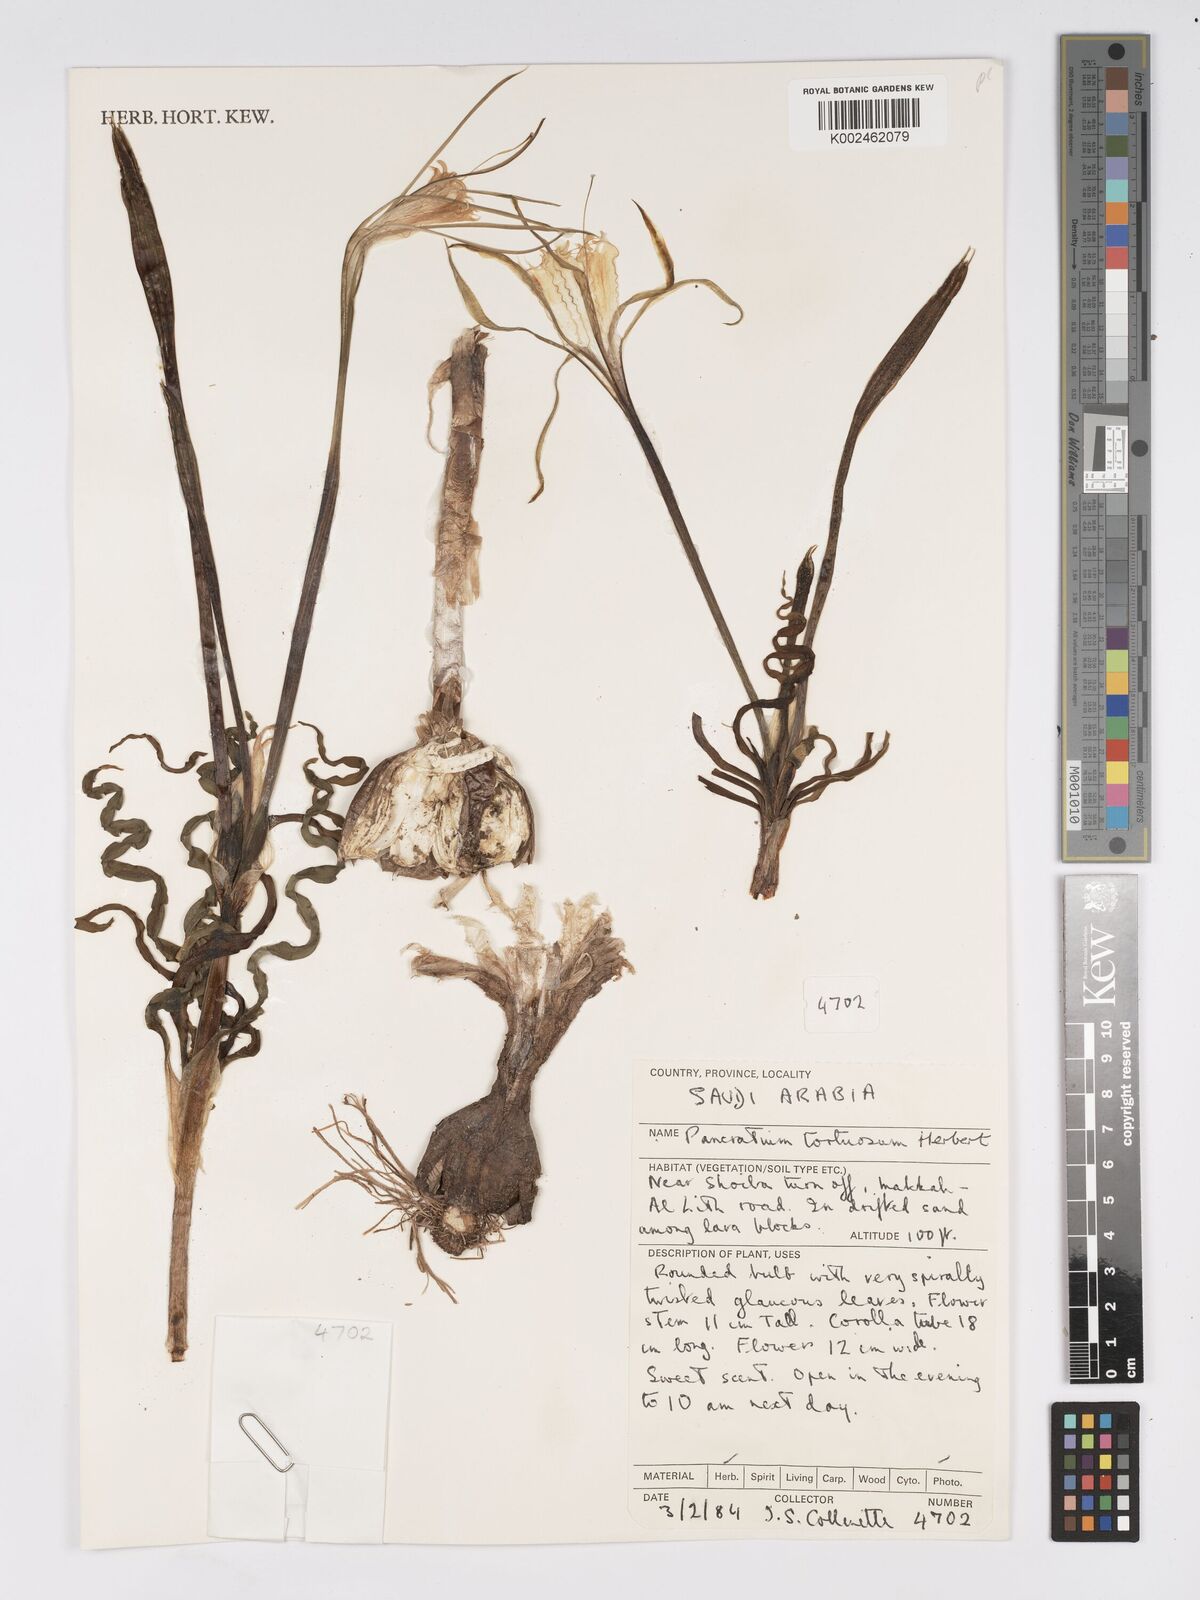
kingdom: Plantae
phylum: Tracheophyta
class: Liliopsida
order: Asparagales
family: Amaryllidaceae
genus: Pancratium
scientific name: Pancratium tortuosum
